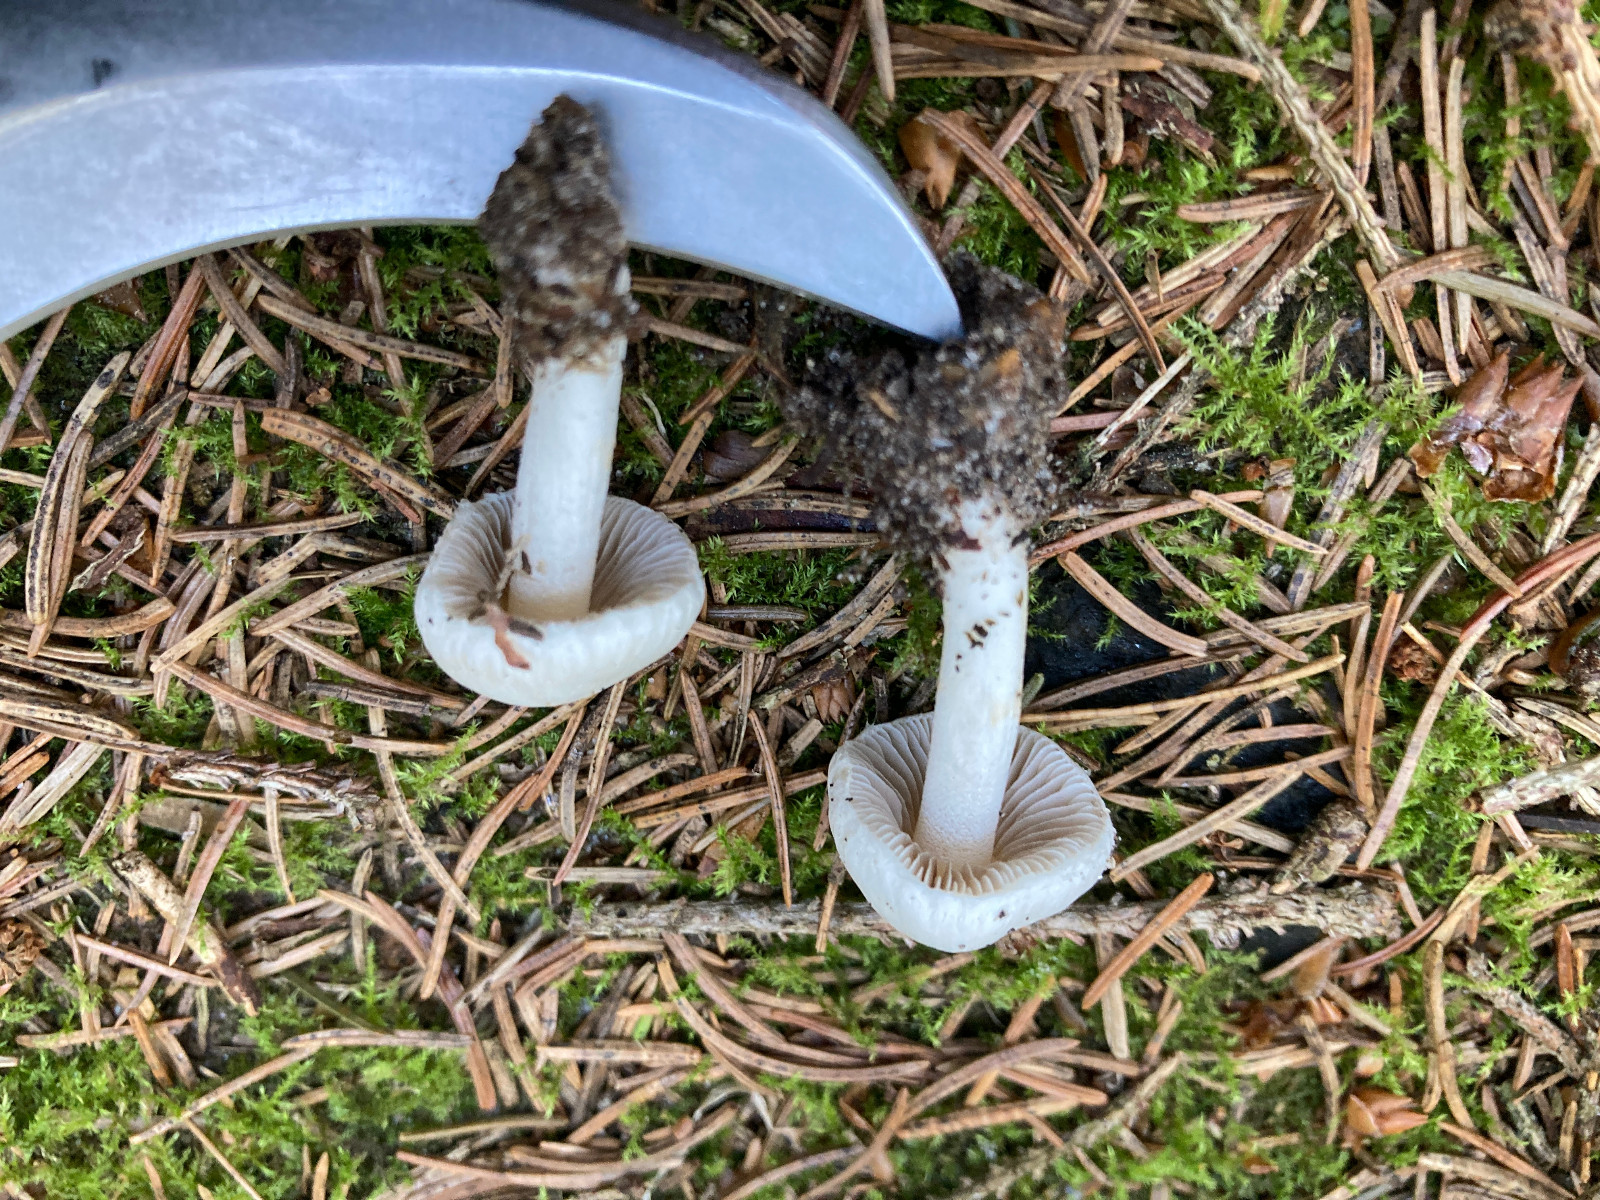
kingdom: Fungi
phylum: Basidiomycota
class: Agaricomycetes
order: Agaricales
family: Inocybaceae
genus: Inocybe
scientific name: Inocybe posterula
